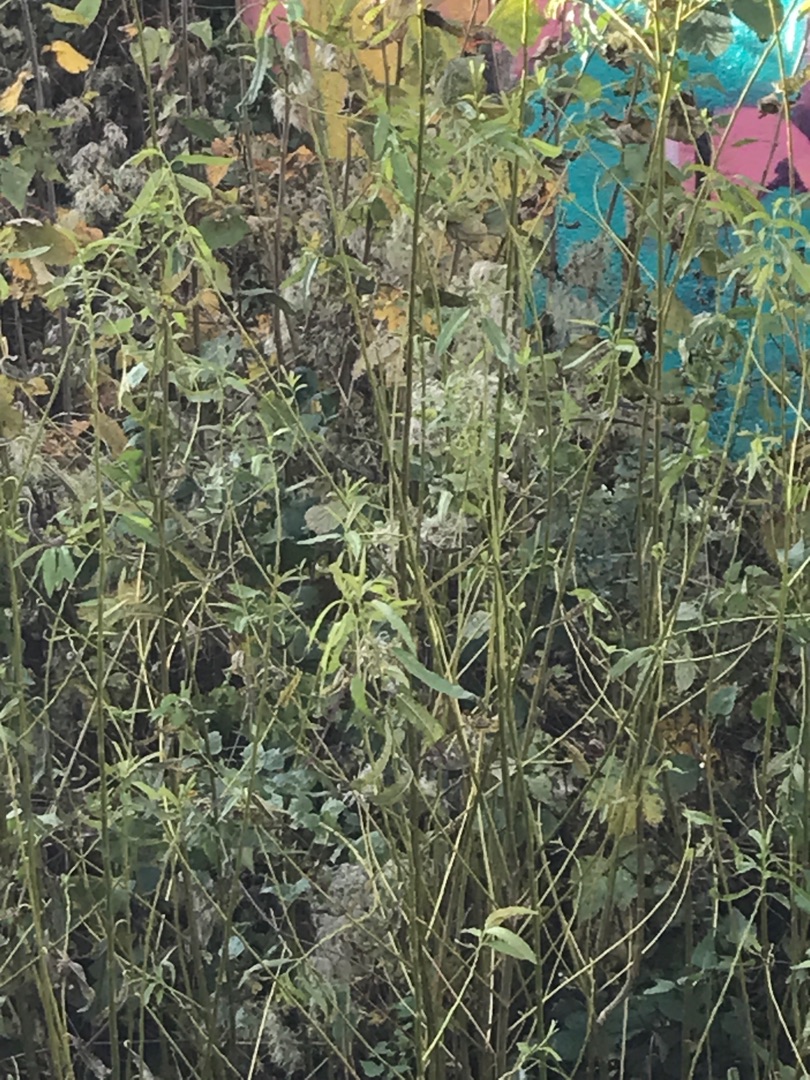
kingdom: Plantae
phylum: Tracheophyta
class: Magnoliopsida
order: Malpighiales
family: Salicaceae
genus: Salix
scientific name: Salix
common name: Pileslægten
